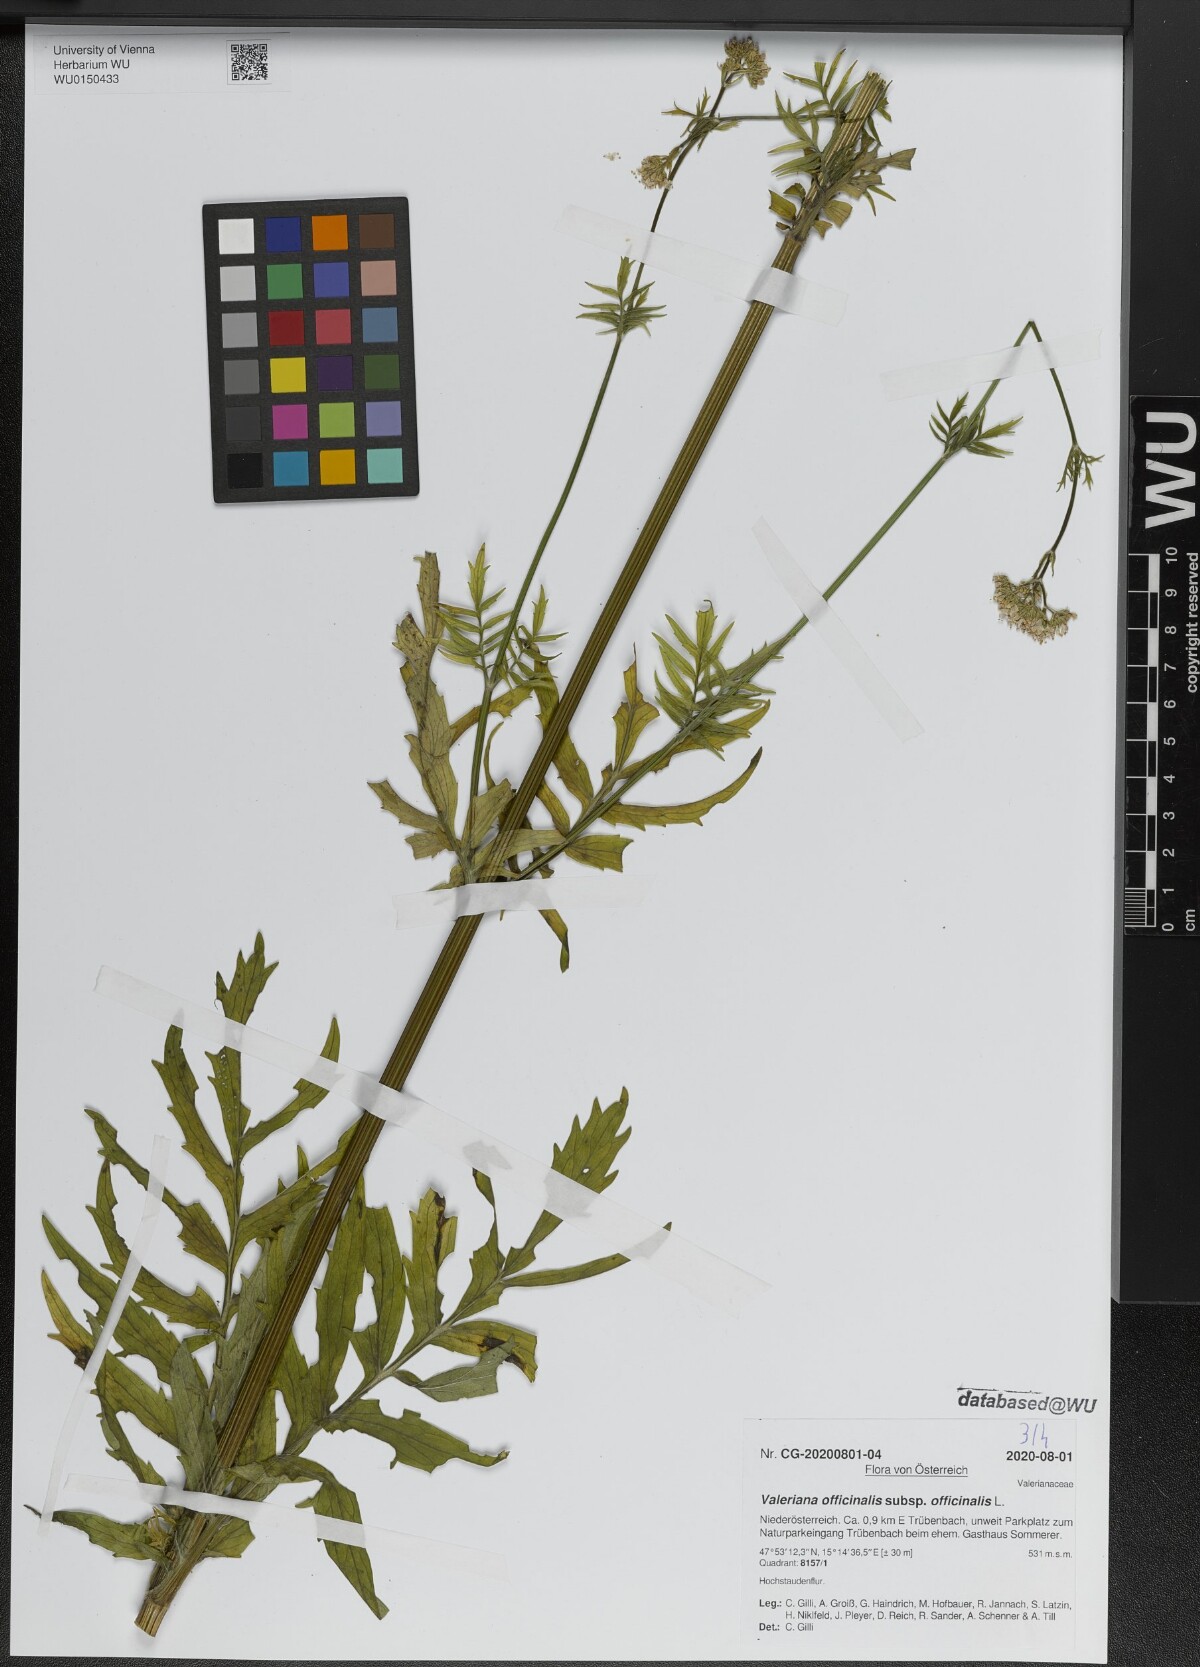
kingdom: Plantae
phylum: Tracheophyta
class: Magnoliopsida
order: Dipsacales
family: Caprifoliaceae
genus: Valeriana
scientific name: Valeriana officinalis
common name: Common valerian
